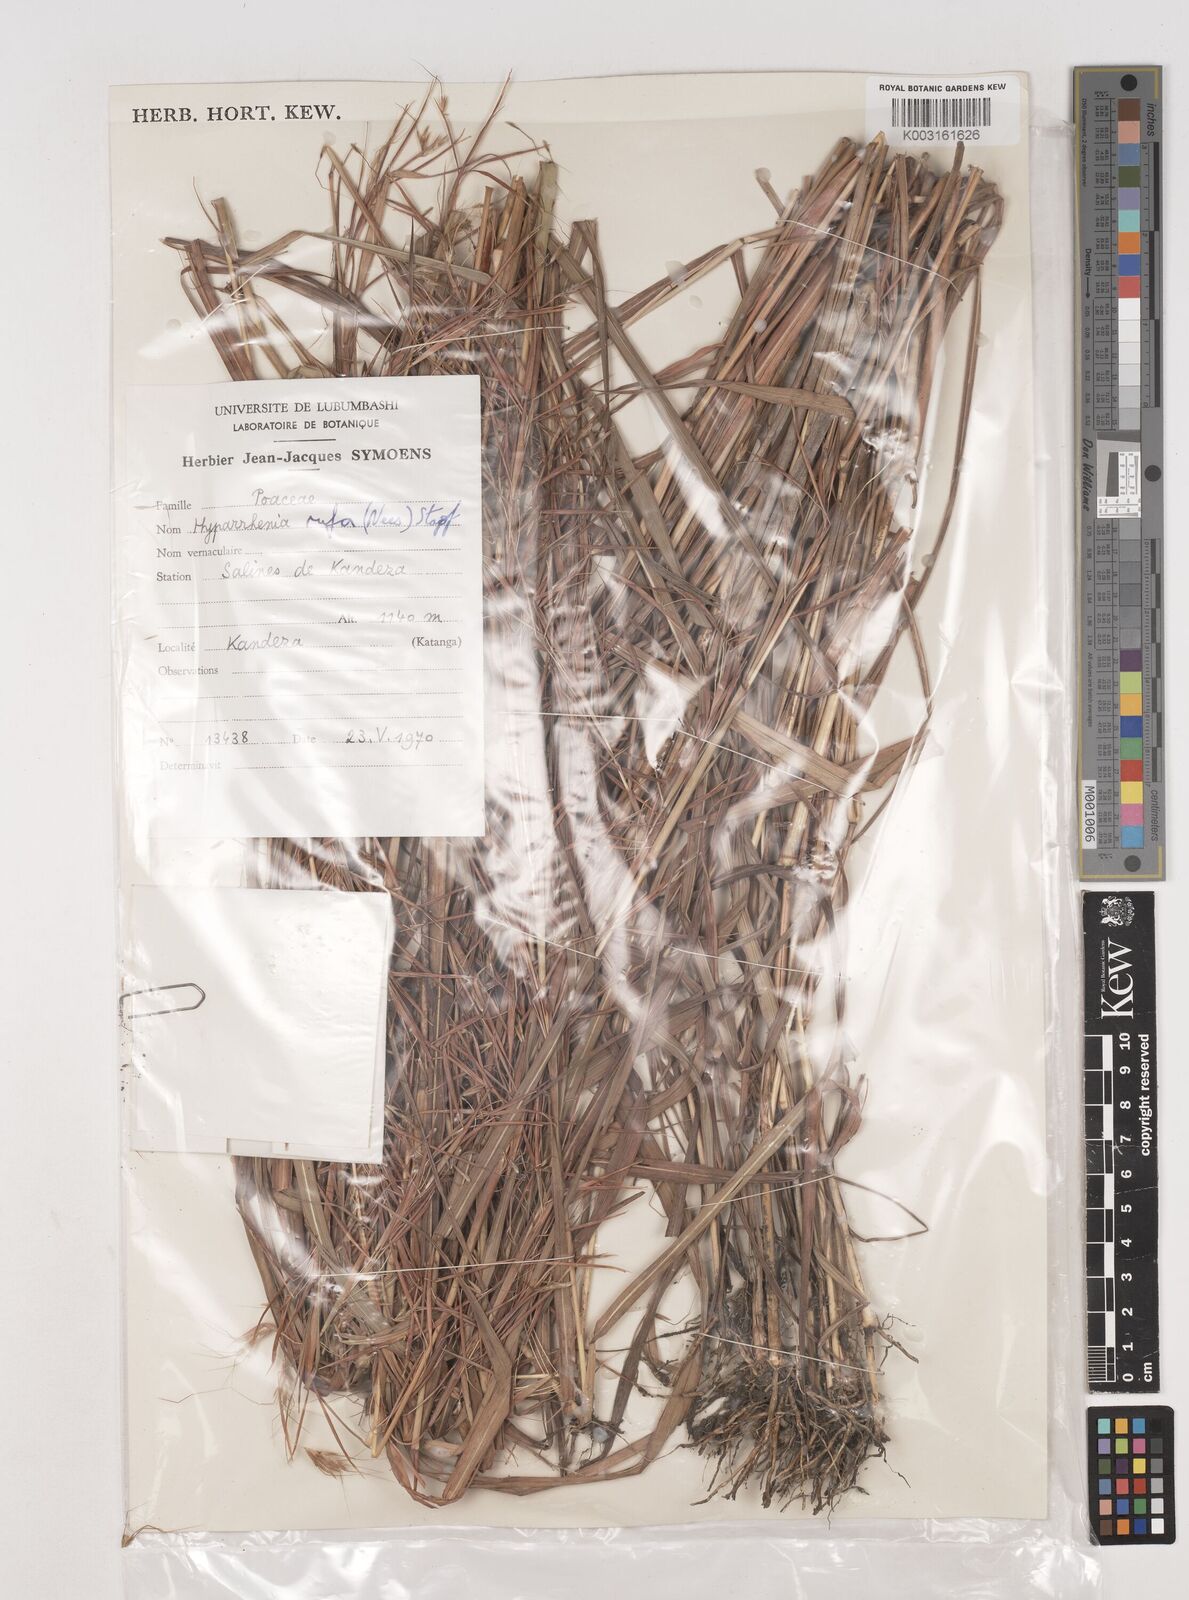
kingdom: Plantae
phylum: Tracheophyta
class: Liliopsida
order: Poales
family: Poaceae
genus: Hyparrhenia
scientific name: Hyparrhenia rufa
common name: Jaraguagrass
